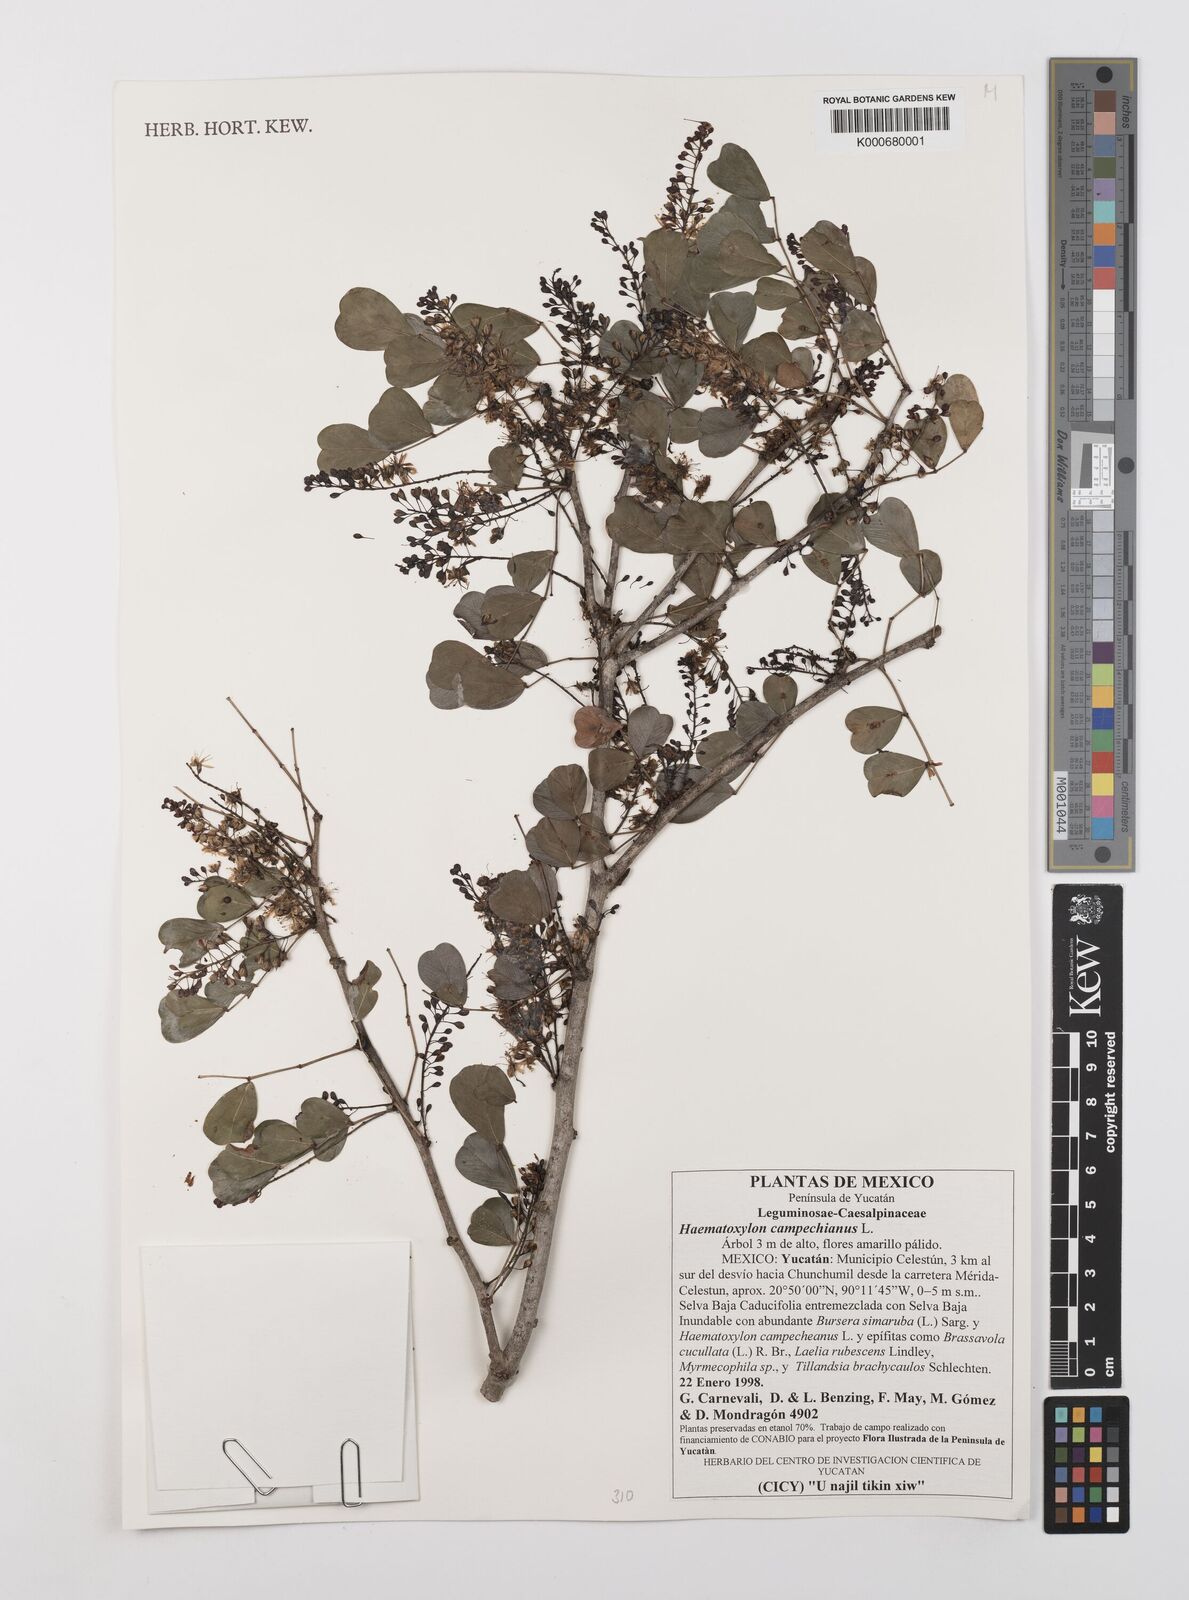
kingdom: Plantae
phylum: Tracheophyta
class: Magnoliopsida
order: Fabales
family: Fabaceae
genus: Haematoxylum
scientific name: Haematoxylum
